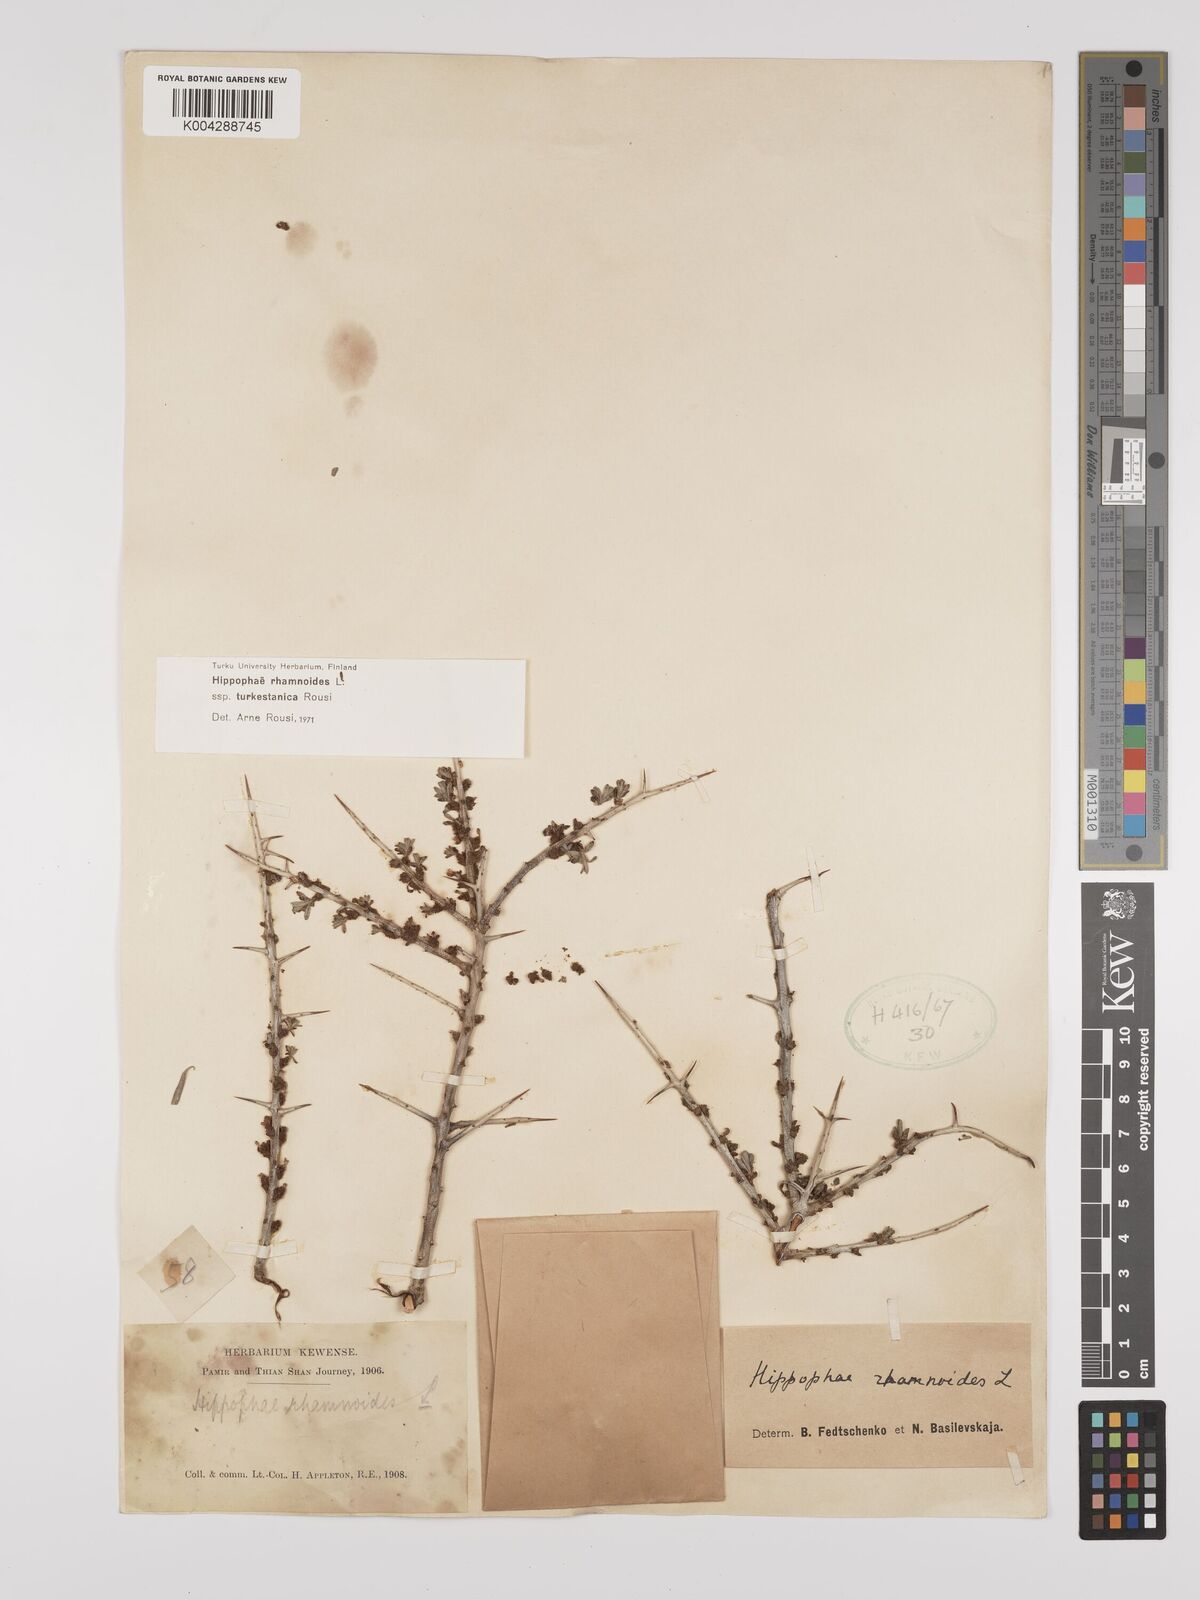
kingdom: Plantae
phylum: Tracheophyta
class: Magnoliopsida
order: Rosales
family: Elaeagnaceae
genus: Hippophae
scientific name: Hippophae rhamnoides
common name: Sea-buckthorn
